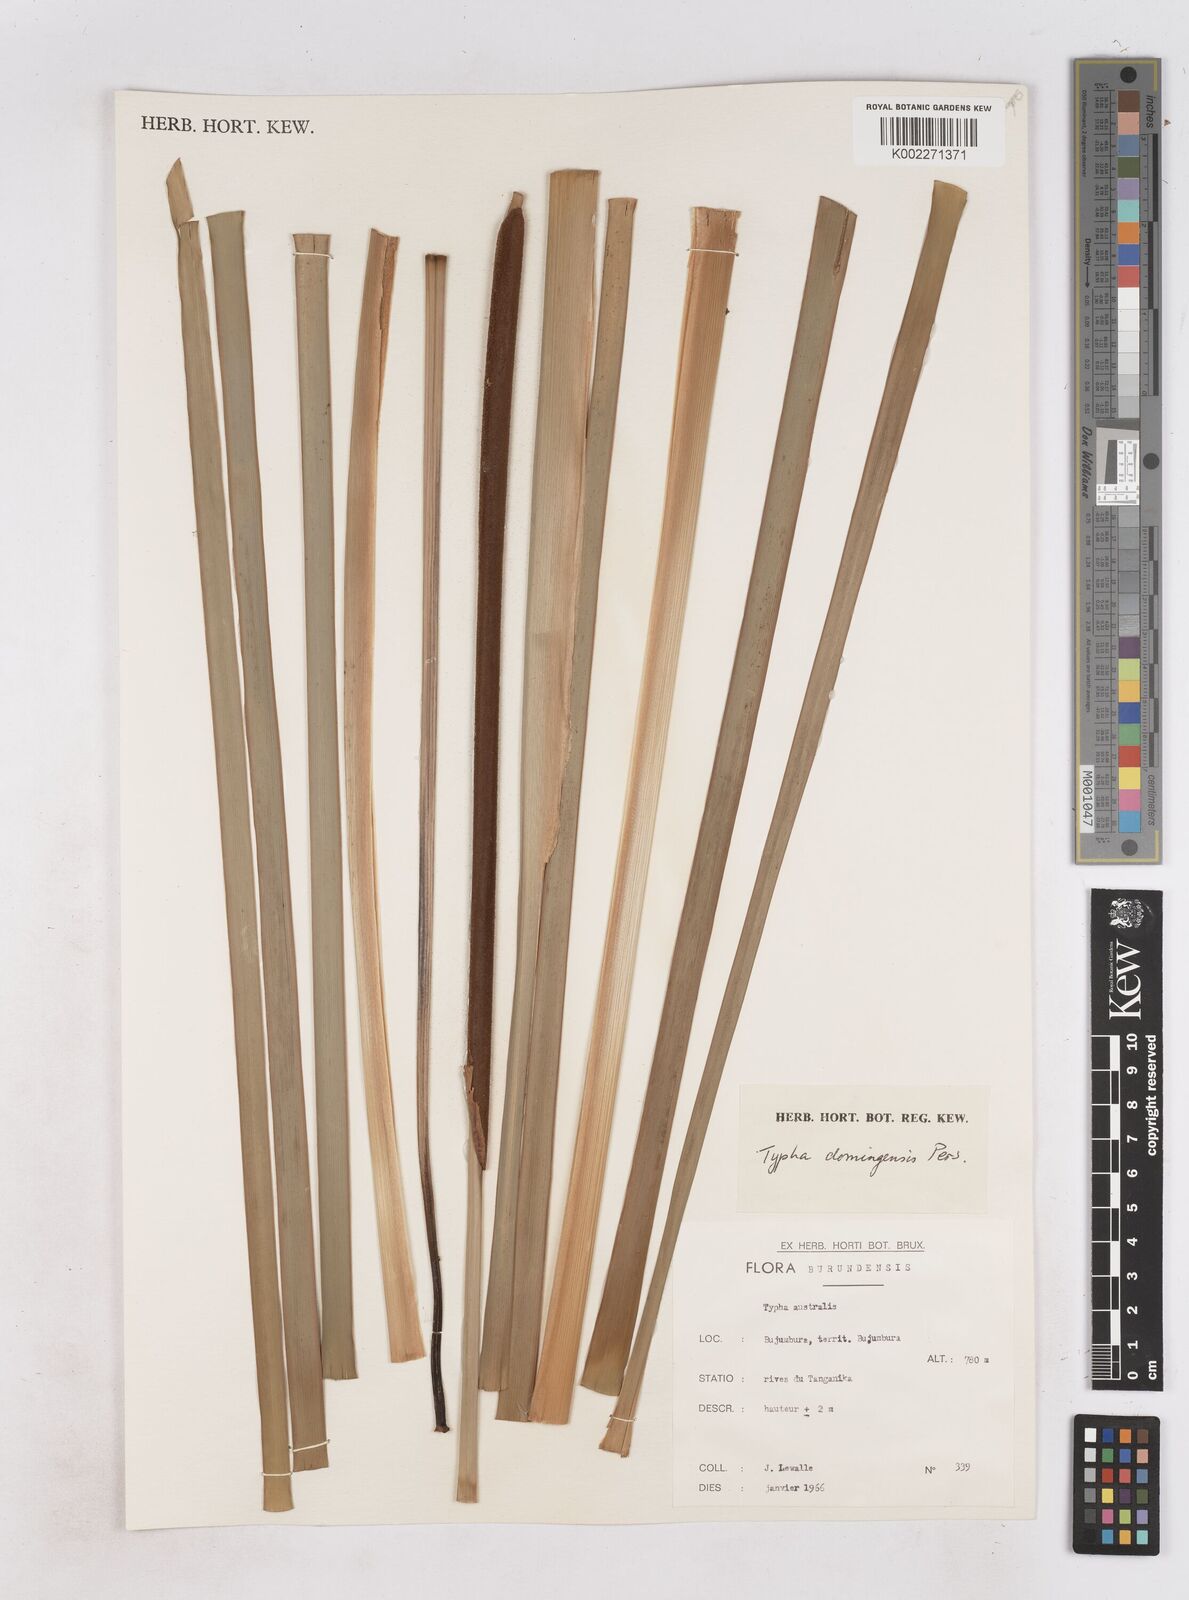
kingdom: Plantae
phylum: Tracheophyta
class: Liliopsida
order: Poales
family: Typhaceae
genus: Typha
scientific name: Typha domingensis
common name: Southern cattail
